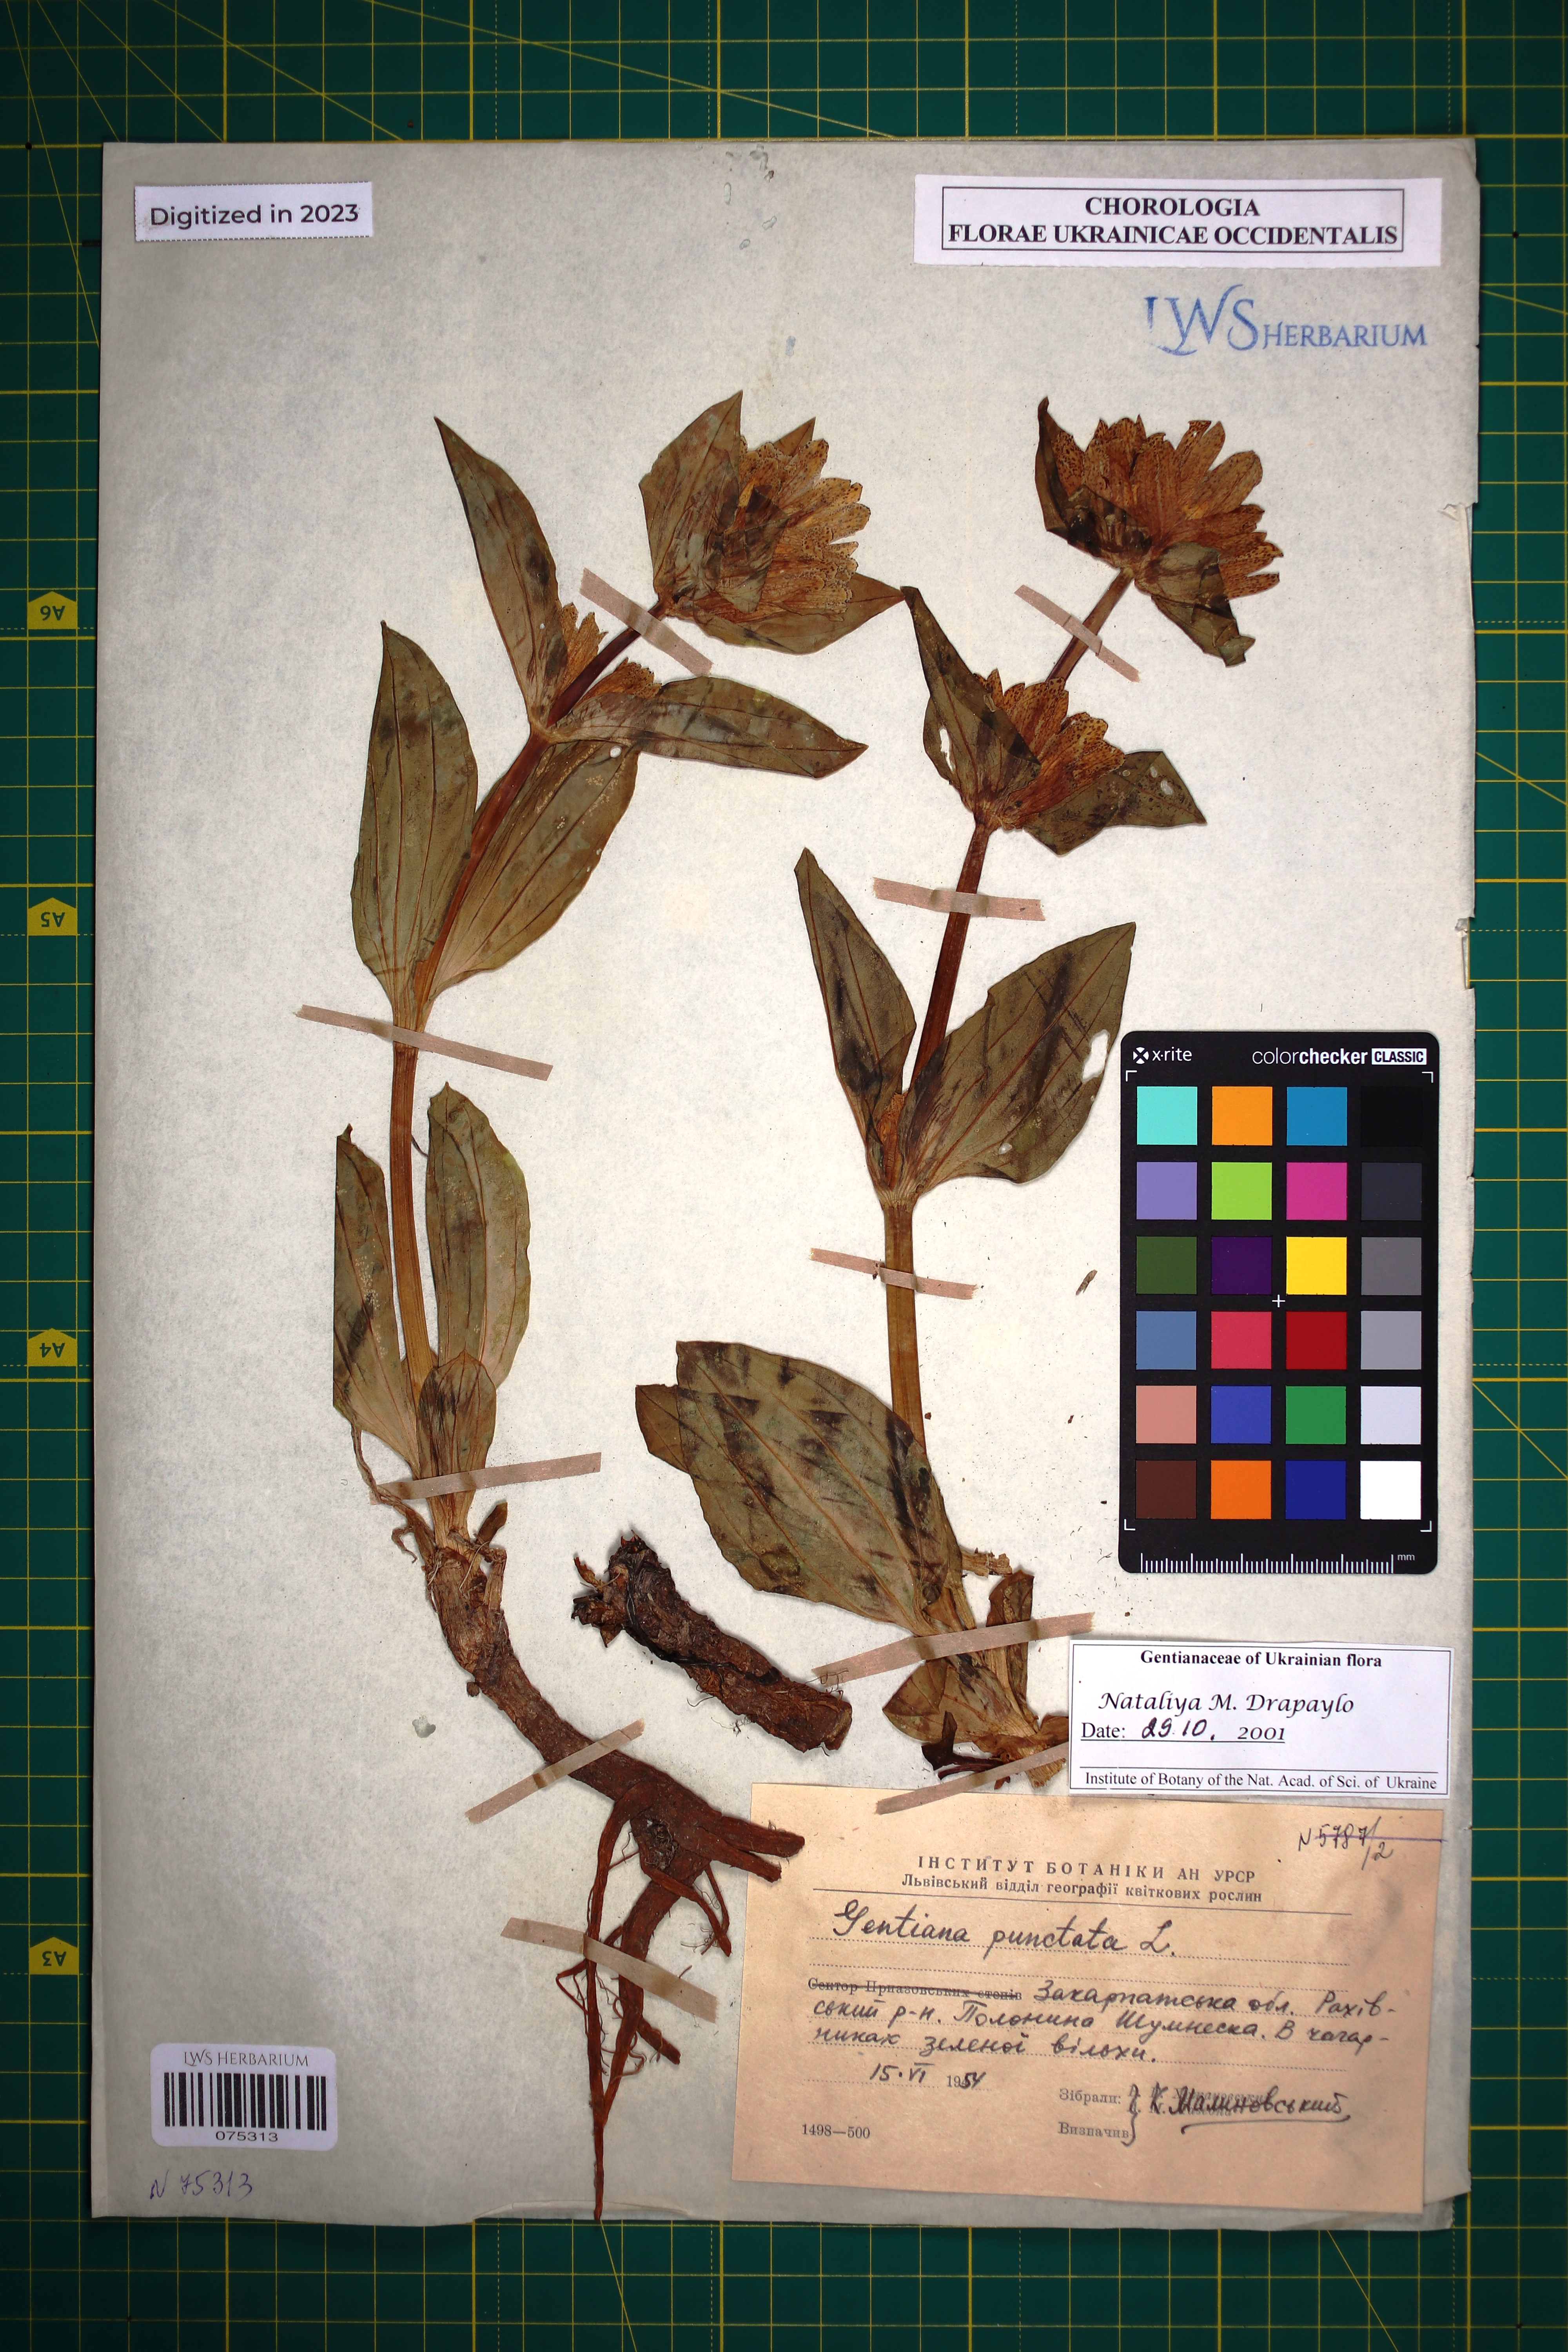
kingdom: Plantae
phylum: Tracheophyta
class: Magnoliopsida
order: Gentianales
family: Gentianaceae
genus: Gentiana
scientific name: Gentiana punctata
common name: Spotted gentian
